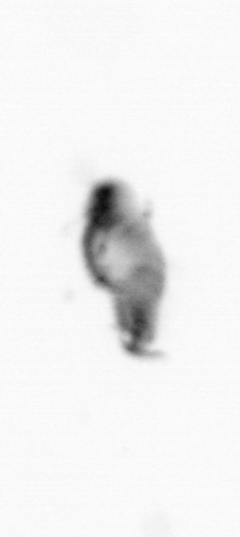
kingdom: Animalia
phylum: Annelida
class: Polychaeta
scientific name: Polychaeta
